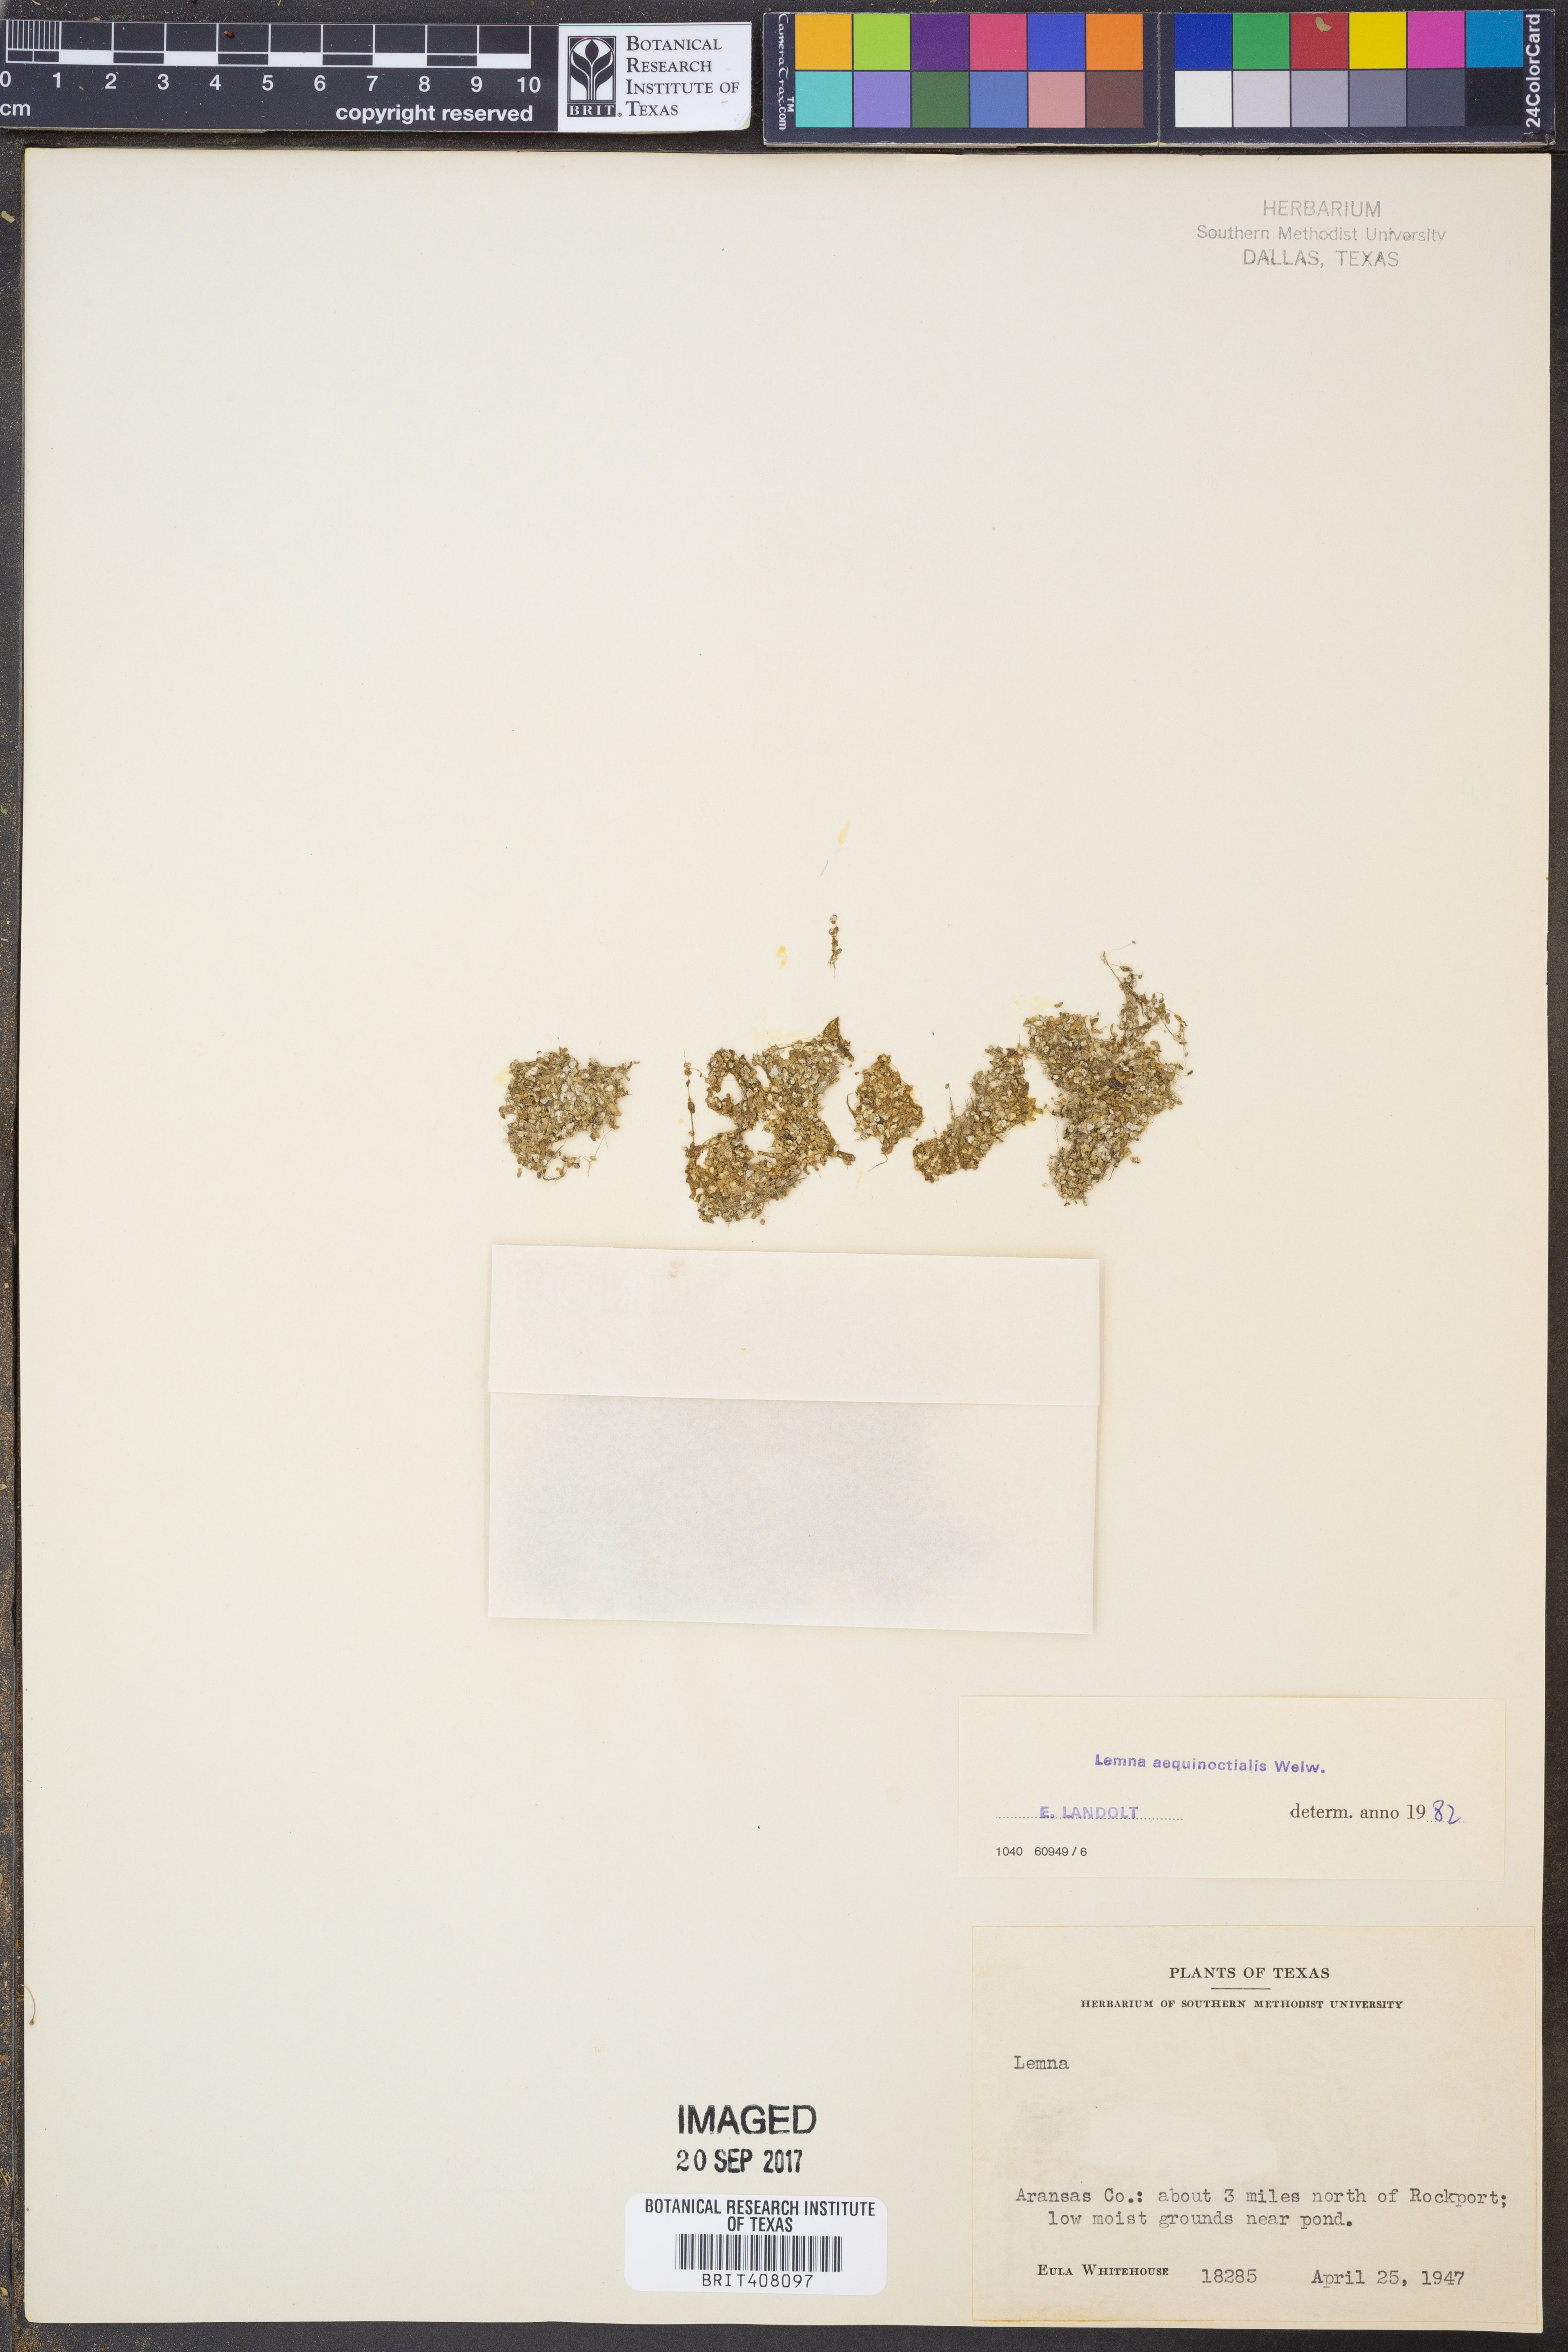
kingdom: Plantae
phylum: Tracheophyta
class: Liliopsida
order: Alismatales
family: Araceae
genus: Lemna
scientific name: Lemna aequinoctialis
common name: Duckweed
